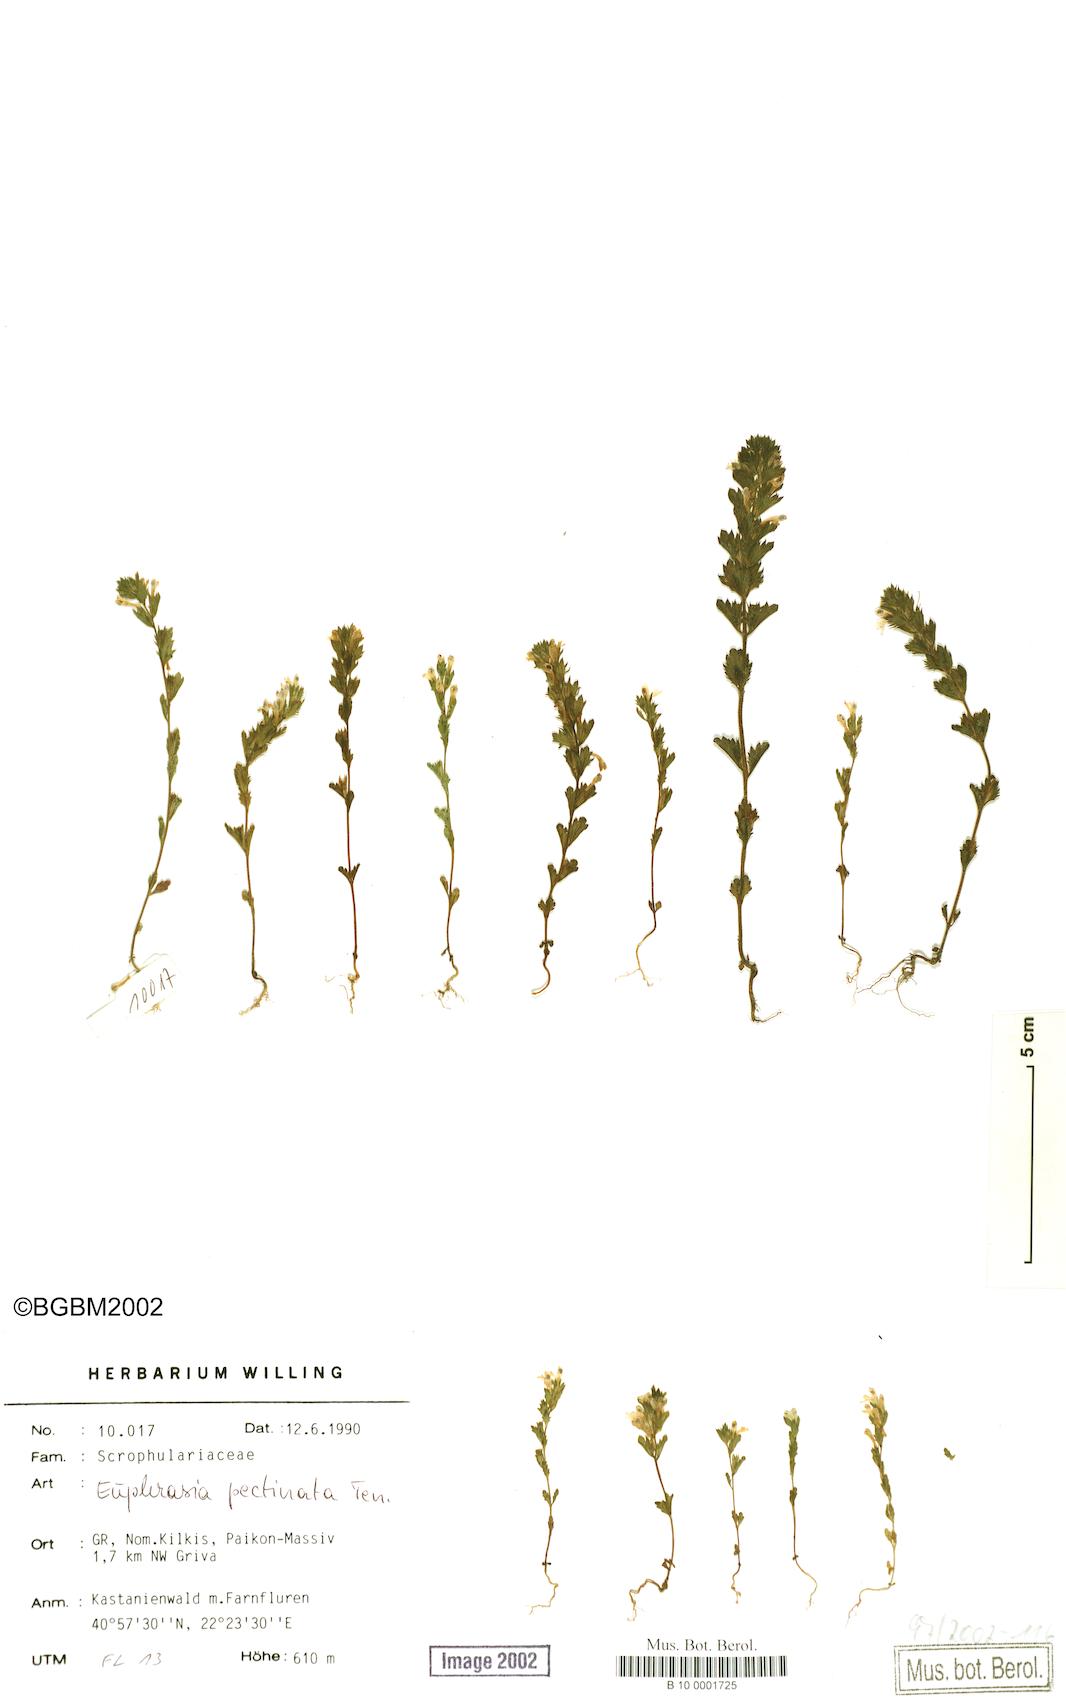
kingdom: Plantae
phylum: Tracheophyta
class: Magnoliopsida
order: Lamiales
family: Orobanchaceae
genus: Euphrasia
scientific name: Euphrasia pectinata
